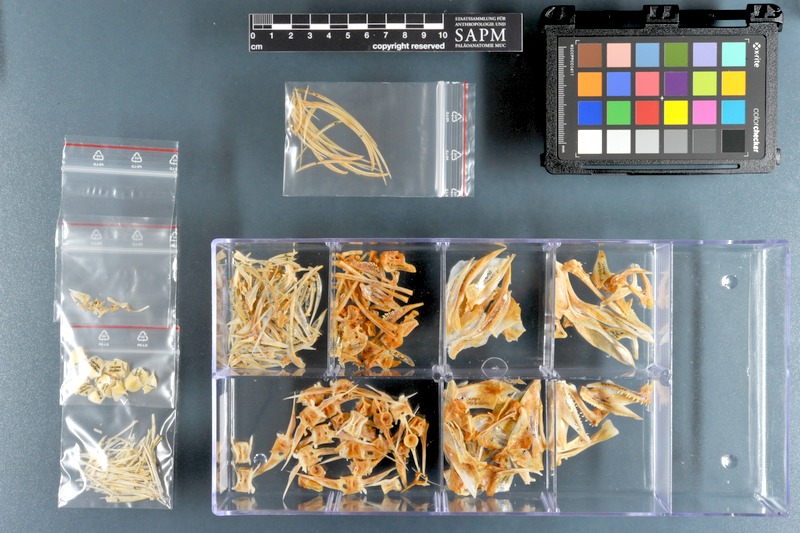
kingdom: Animalia
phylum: Chordata
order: Perciformes
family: Carangidae
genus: Caranx
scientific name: Caranx sexfasciatus
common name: Bigeye trevally
